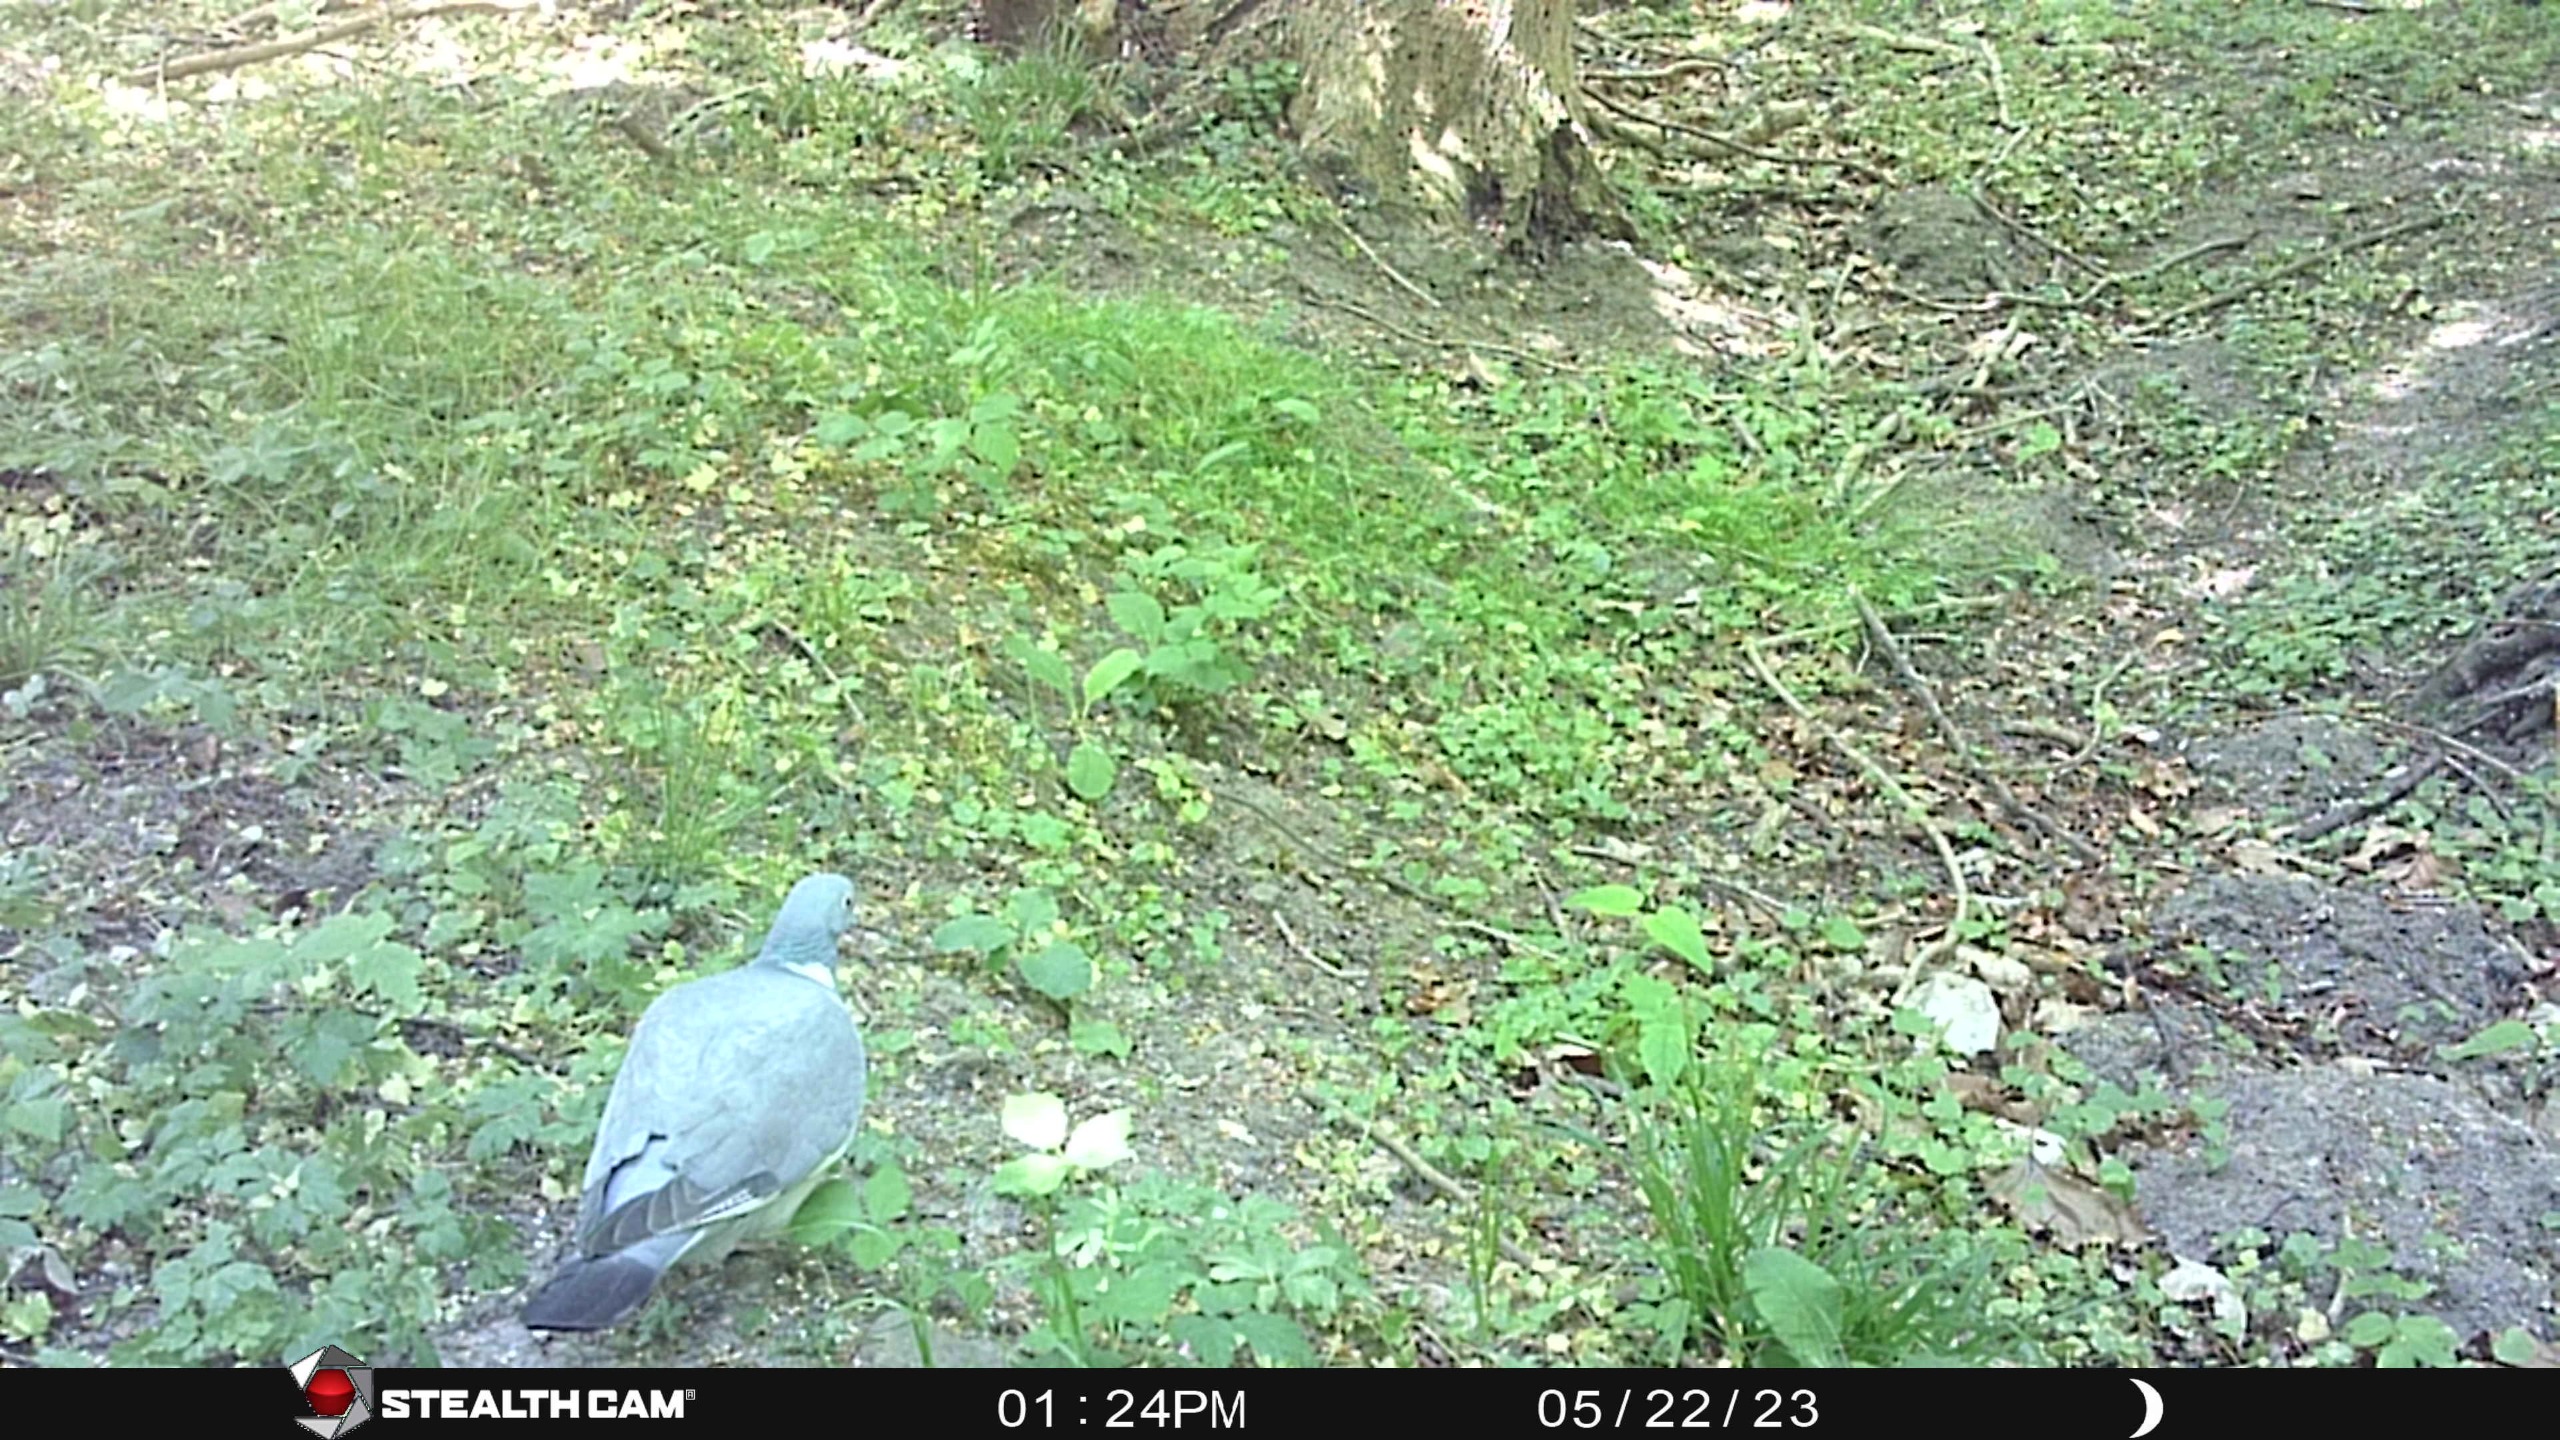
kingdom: Animalia
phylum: Chordata
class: Aves
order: Columbiformes
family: Columbidae
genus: Columba
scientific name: Columba palumbus
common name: Ringdue
